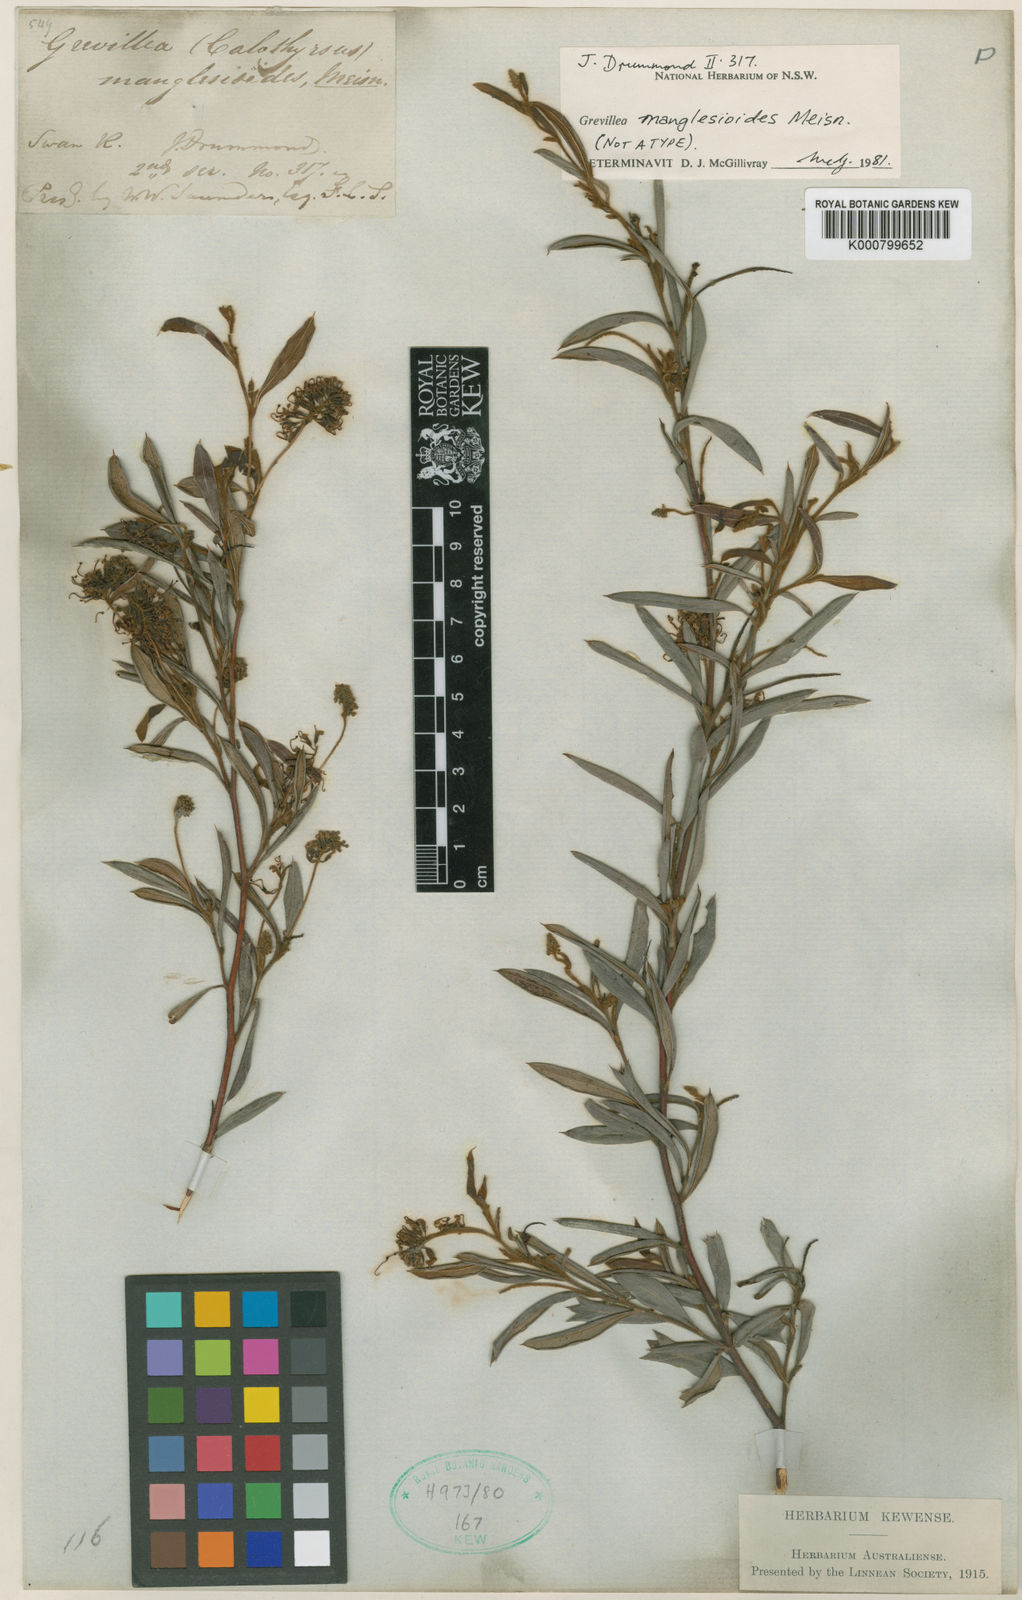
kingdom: Plantae
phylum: Tracheophyta
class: Magnoliopsida
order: Proteales
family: Proteaceae
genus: Grevillea
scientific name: Grevillea manglesioides
